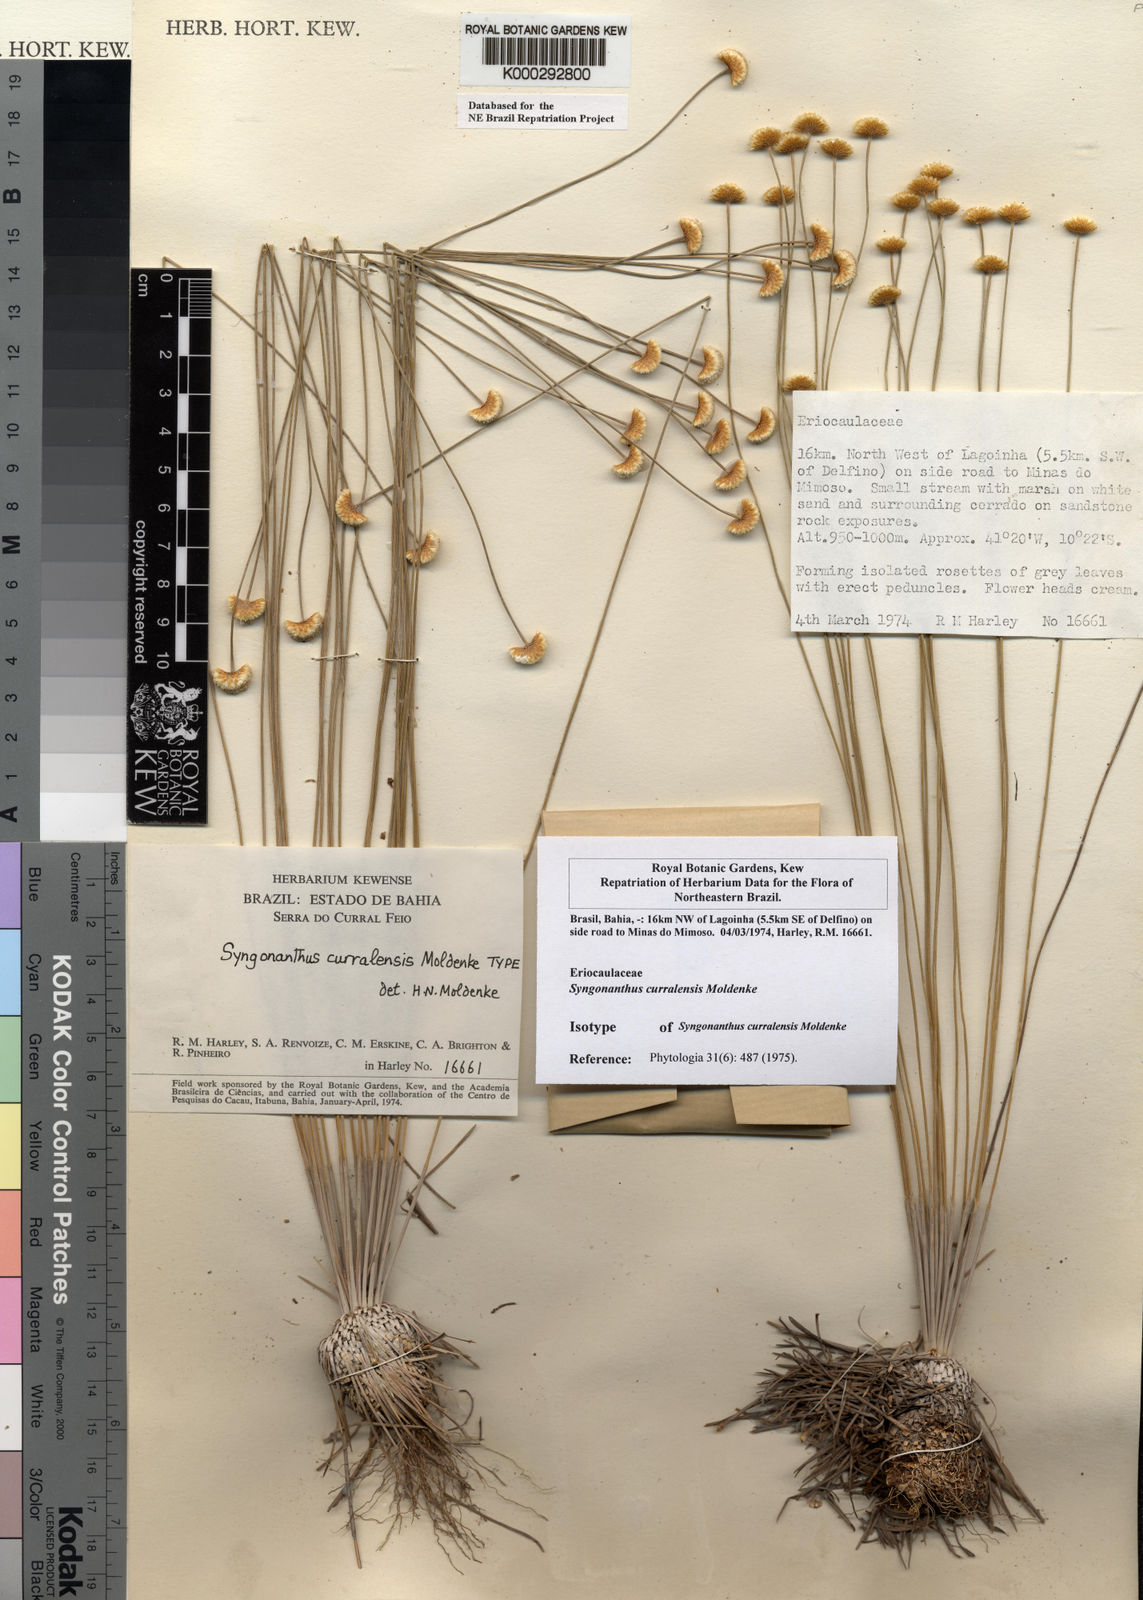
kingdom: Plantae
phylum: Tracheophyta
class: Liliopsida
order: Poales
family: Eriocaulaceae
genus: Comanthera
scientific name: Comanthera curralensis
